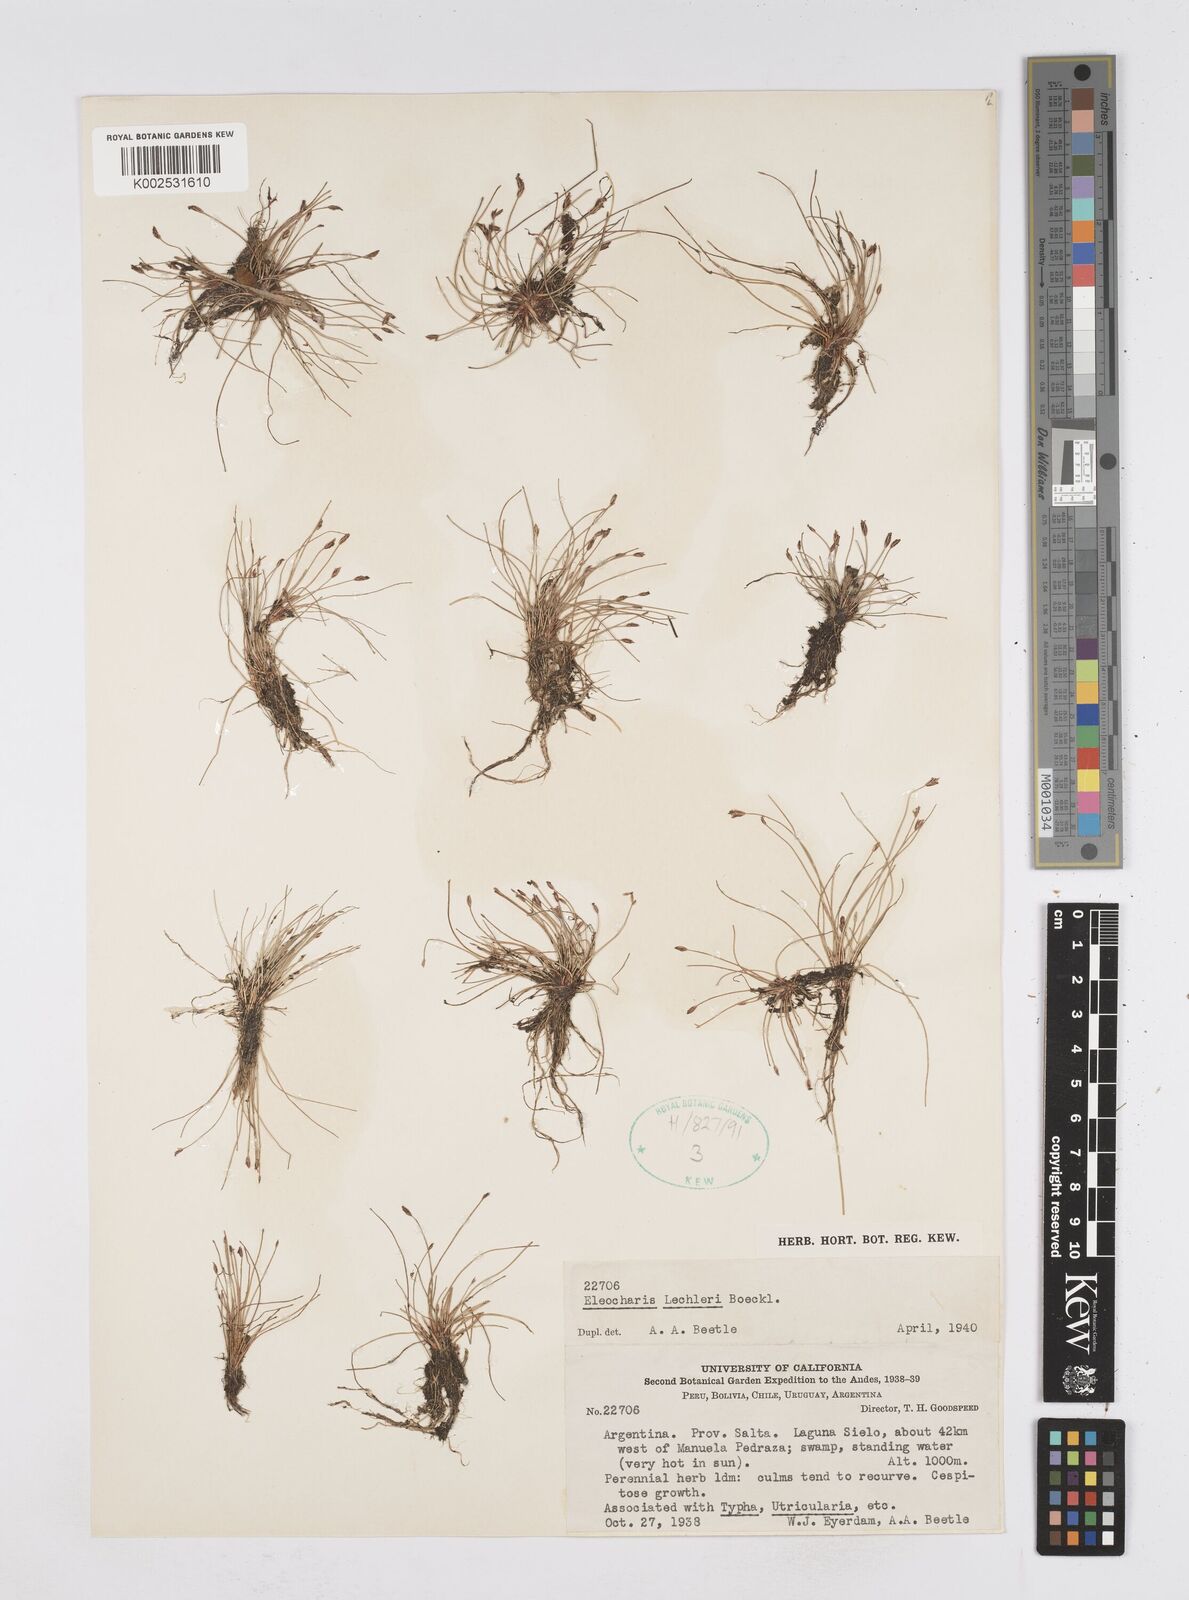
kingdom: Plantae
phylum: Tracheophyta
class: Liliopsida
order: Poales
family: Cyperaceae
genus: Eleocharis
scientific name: Eleocharis lechleri
